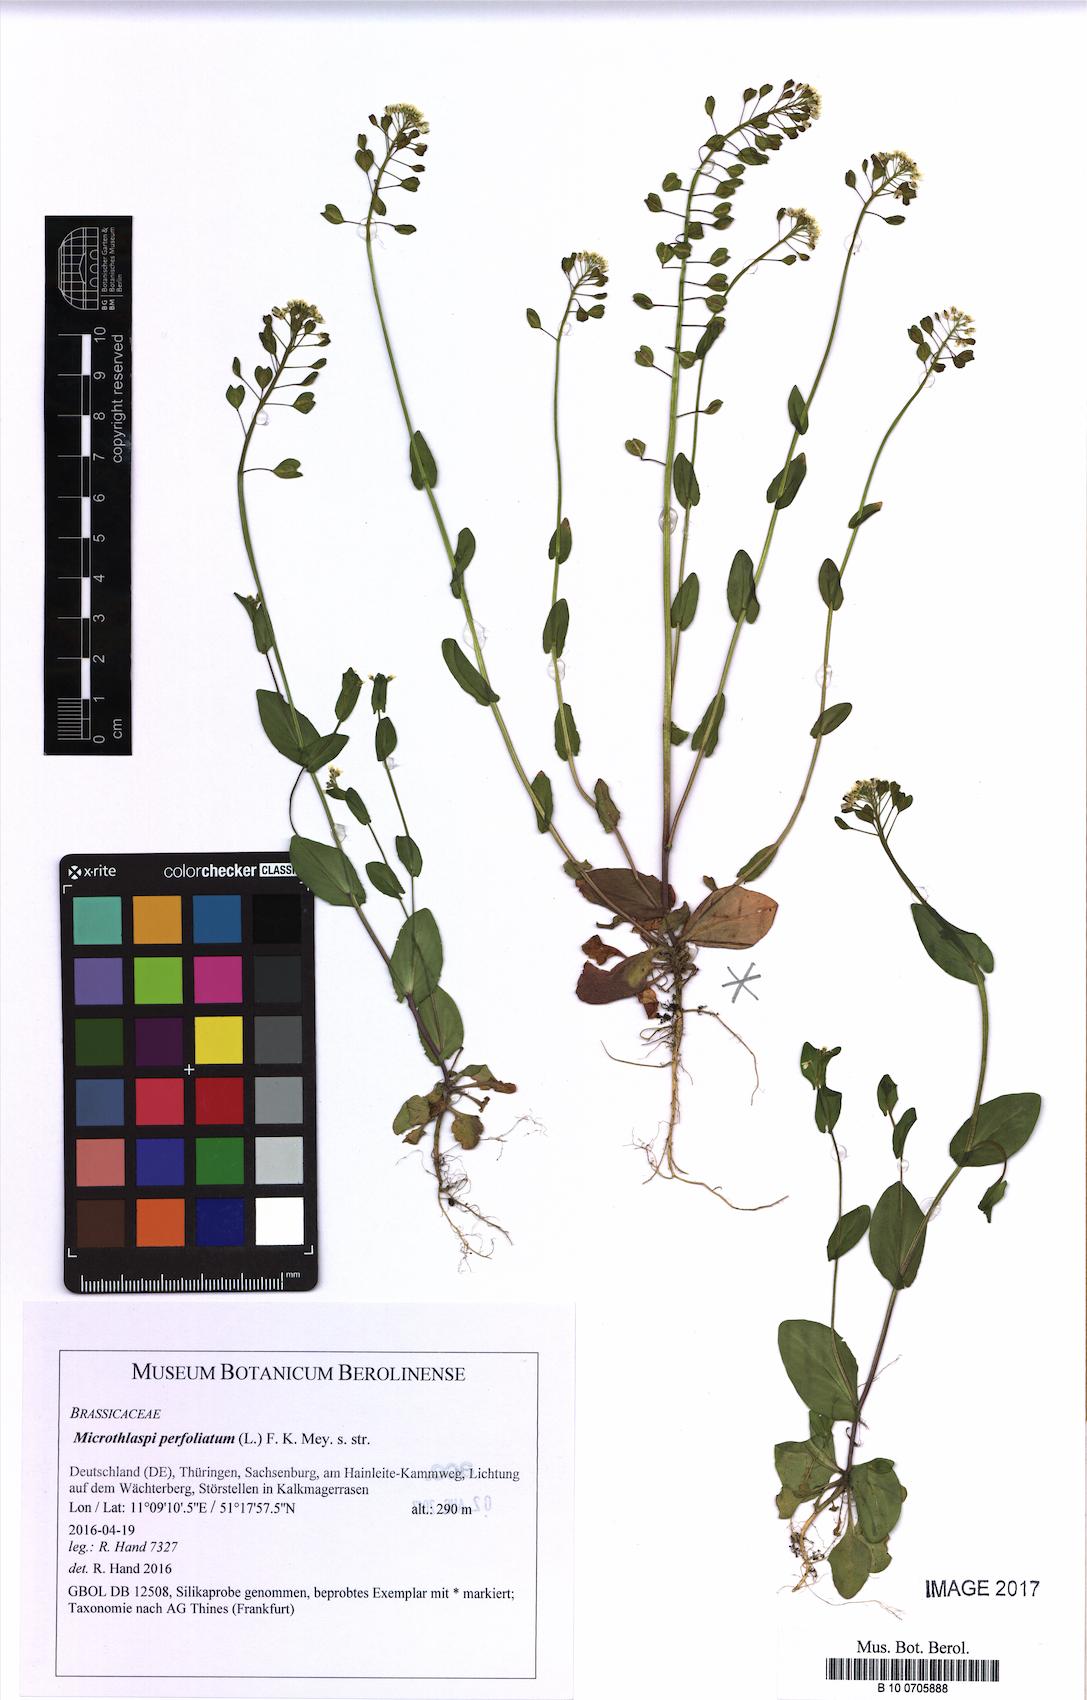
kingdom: Plantae
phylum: Tracheophyta
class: Magnoliopsida
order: Brassicales
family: Brassicaceae
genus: Noccaea
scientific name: Noccaea perfoliata
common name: Perfoliate pennycress
